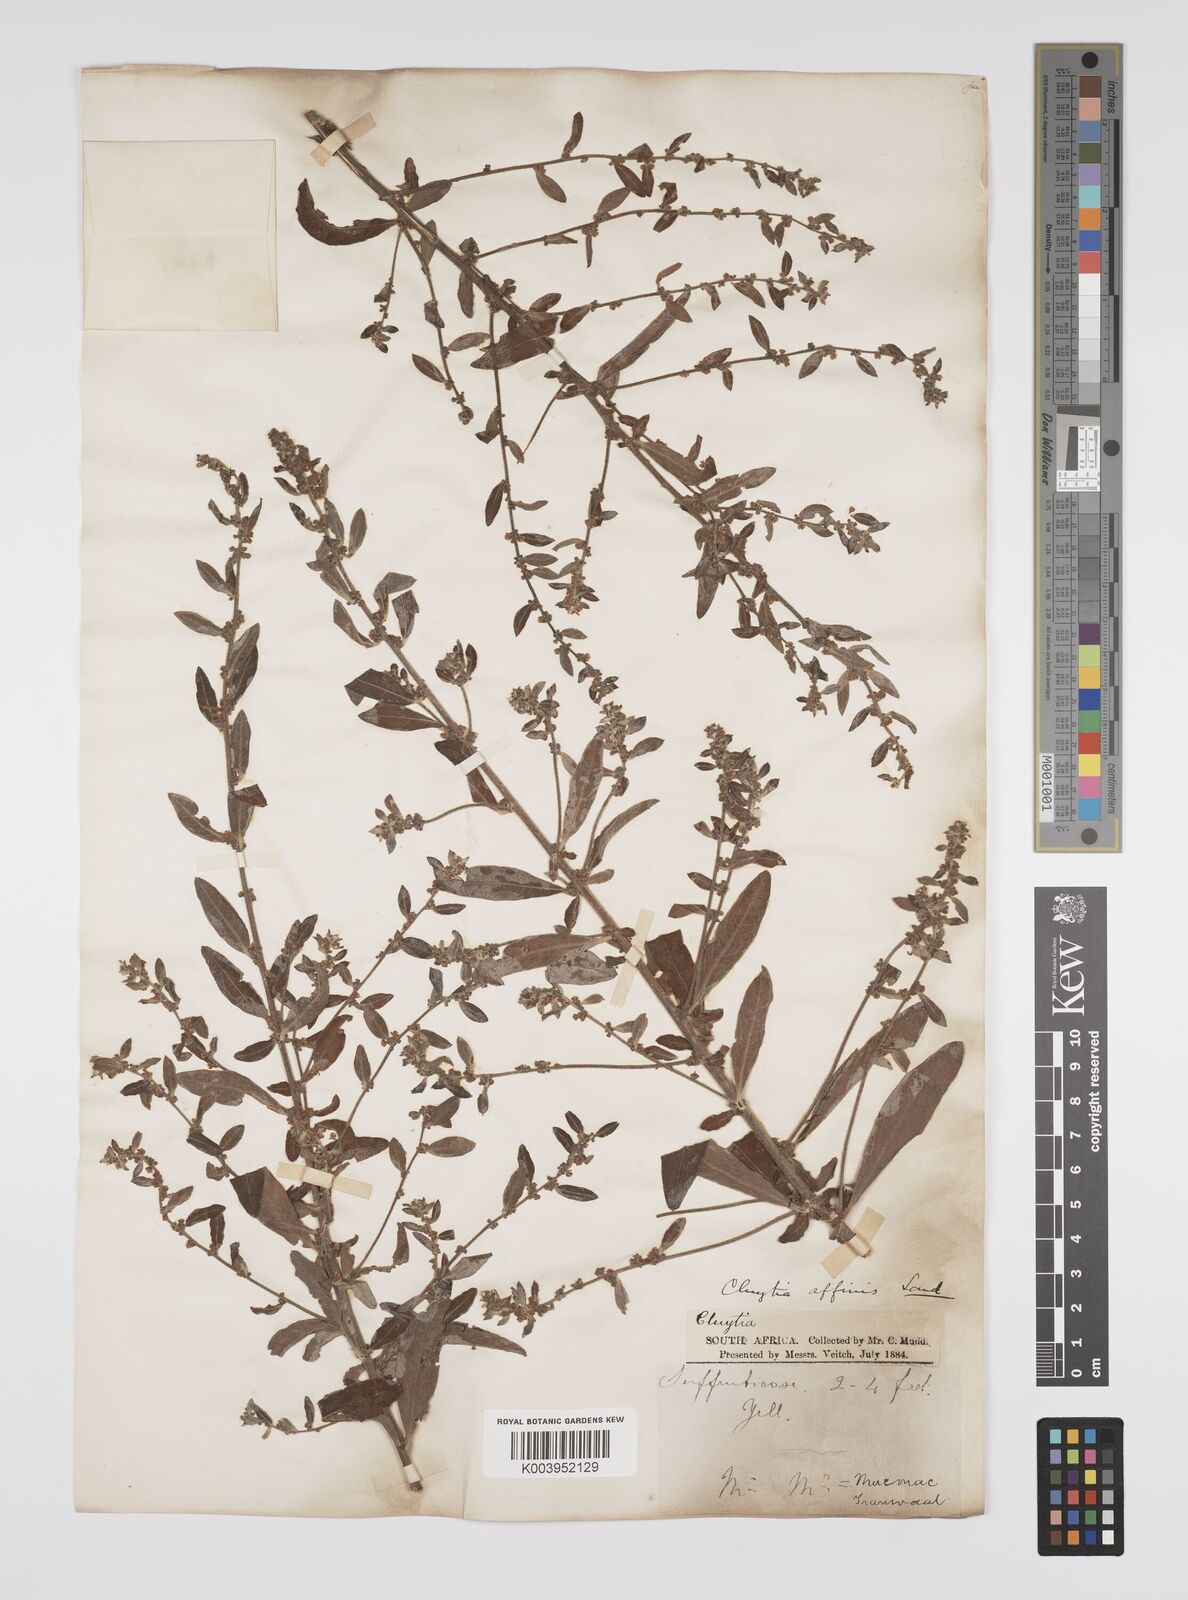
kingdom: Plantae
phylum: Tracheophyta
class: Magnoliopsida
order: Malpighiales
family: Peraceae
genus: Clutia
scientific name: Clutia affinis
